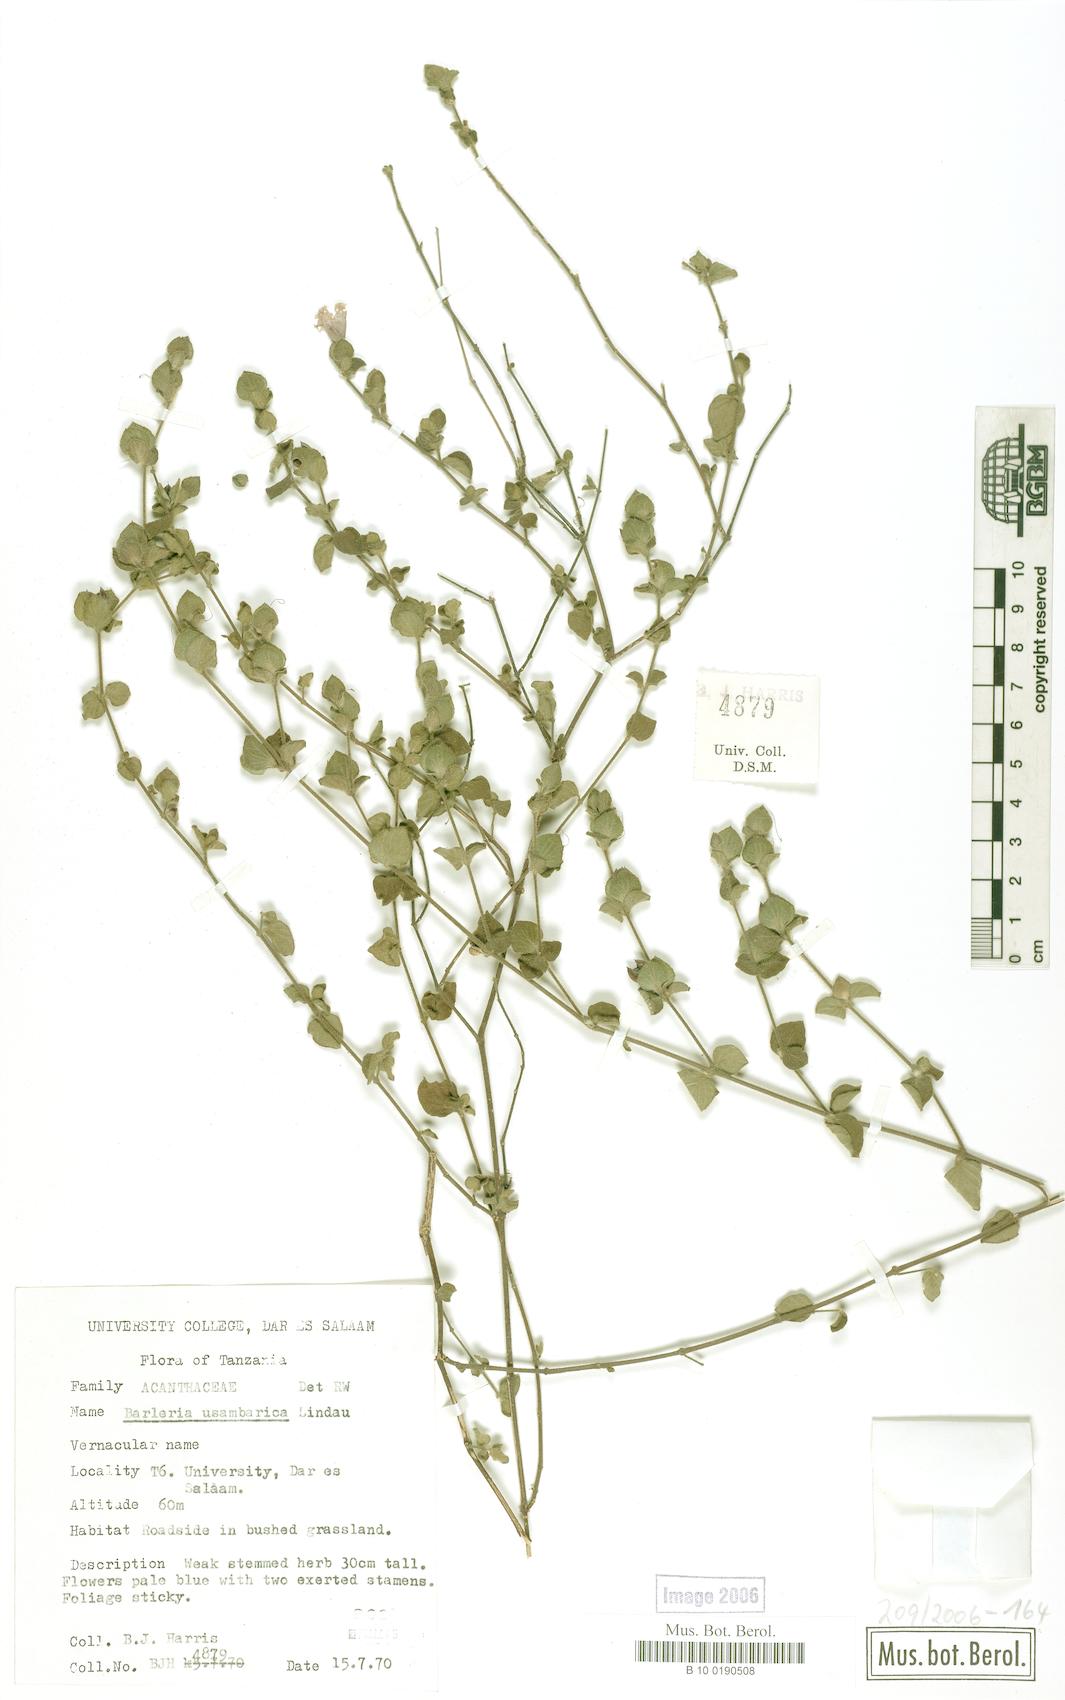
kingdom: Plantae
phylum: Tracheophyta
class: Magnoliopsida
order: Lamiales
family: Acanthaceae
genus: Barleria
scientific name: Barleria usambarica
